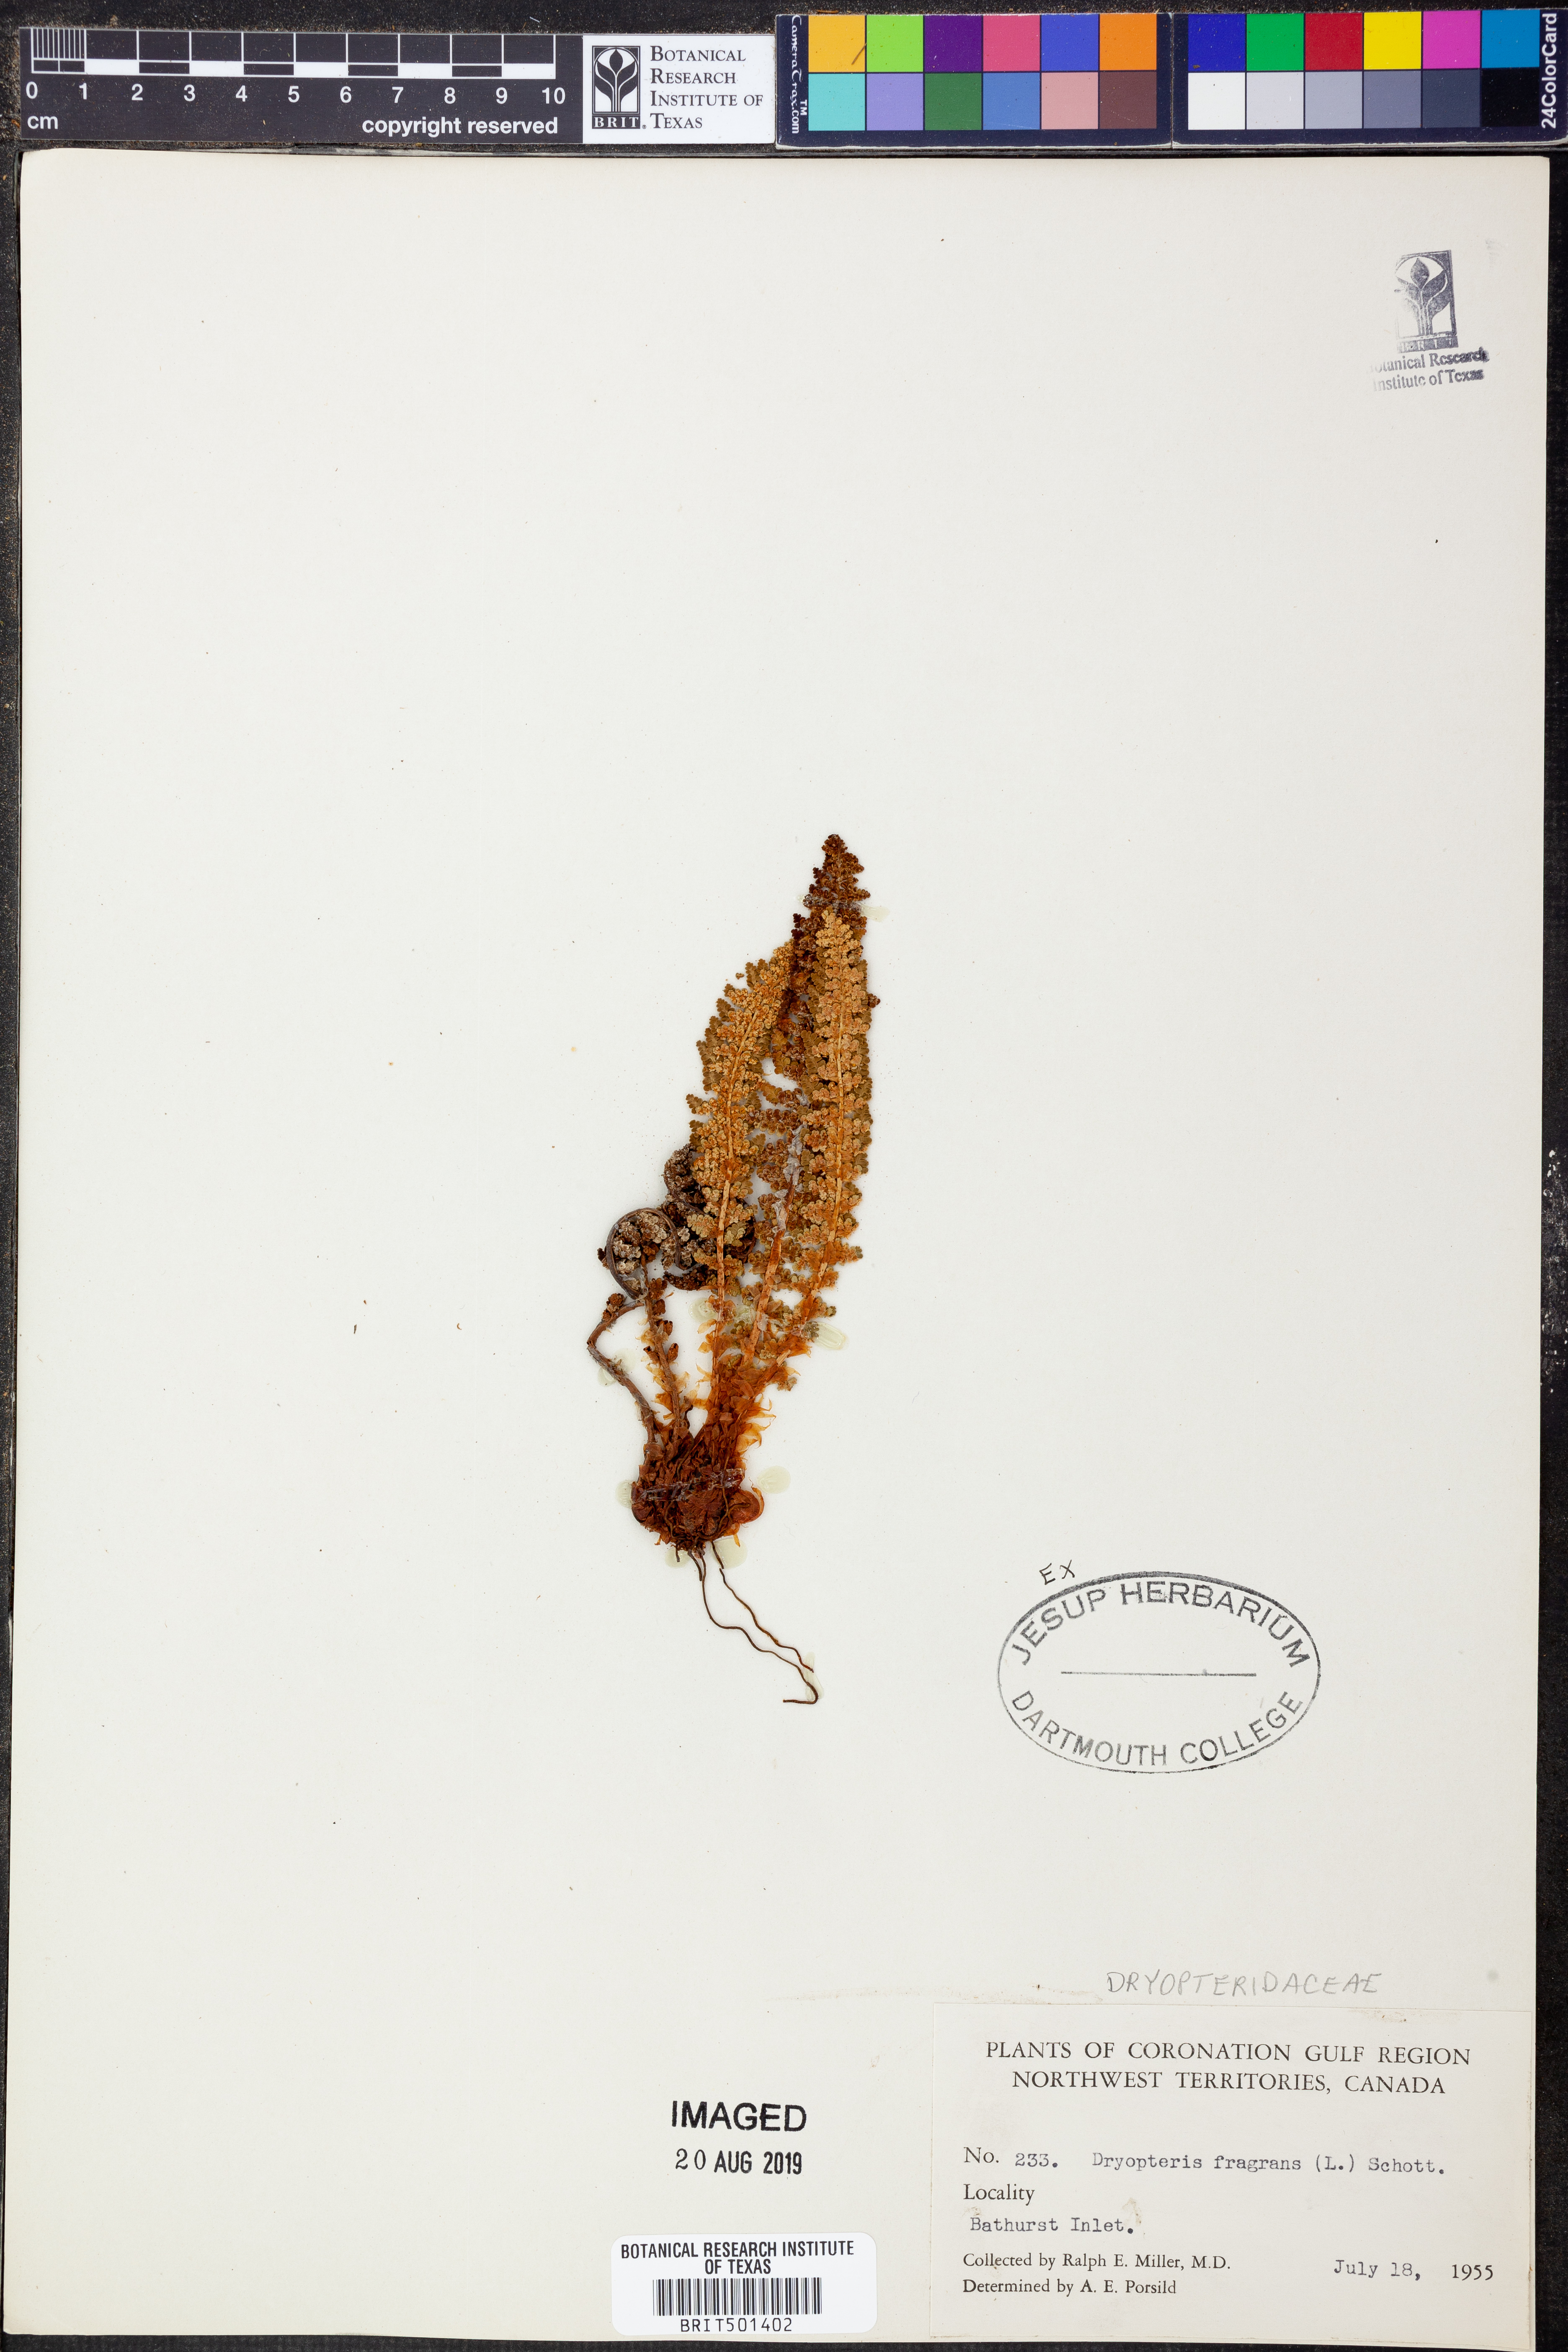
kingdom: Plantae
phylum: Tracheophyta
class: Polypodiopsida
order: Polypodiales
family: Dryopteridaceae
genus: Dryopteris
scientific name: Dryopteris fragrans
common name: Fragrant wood fern
